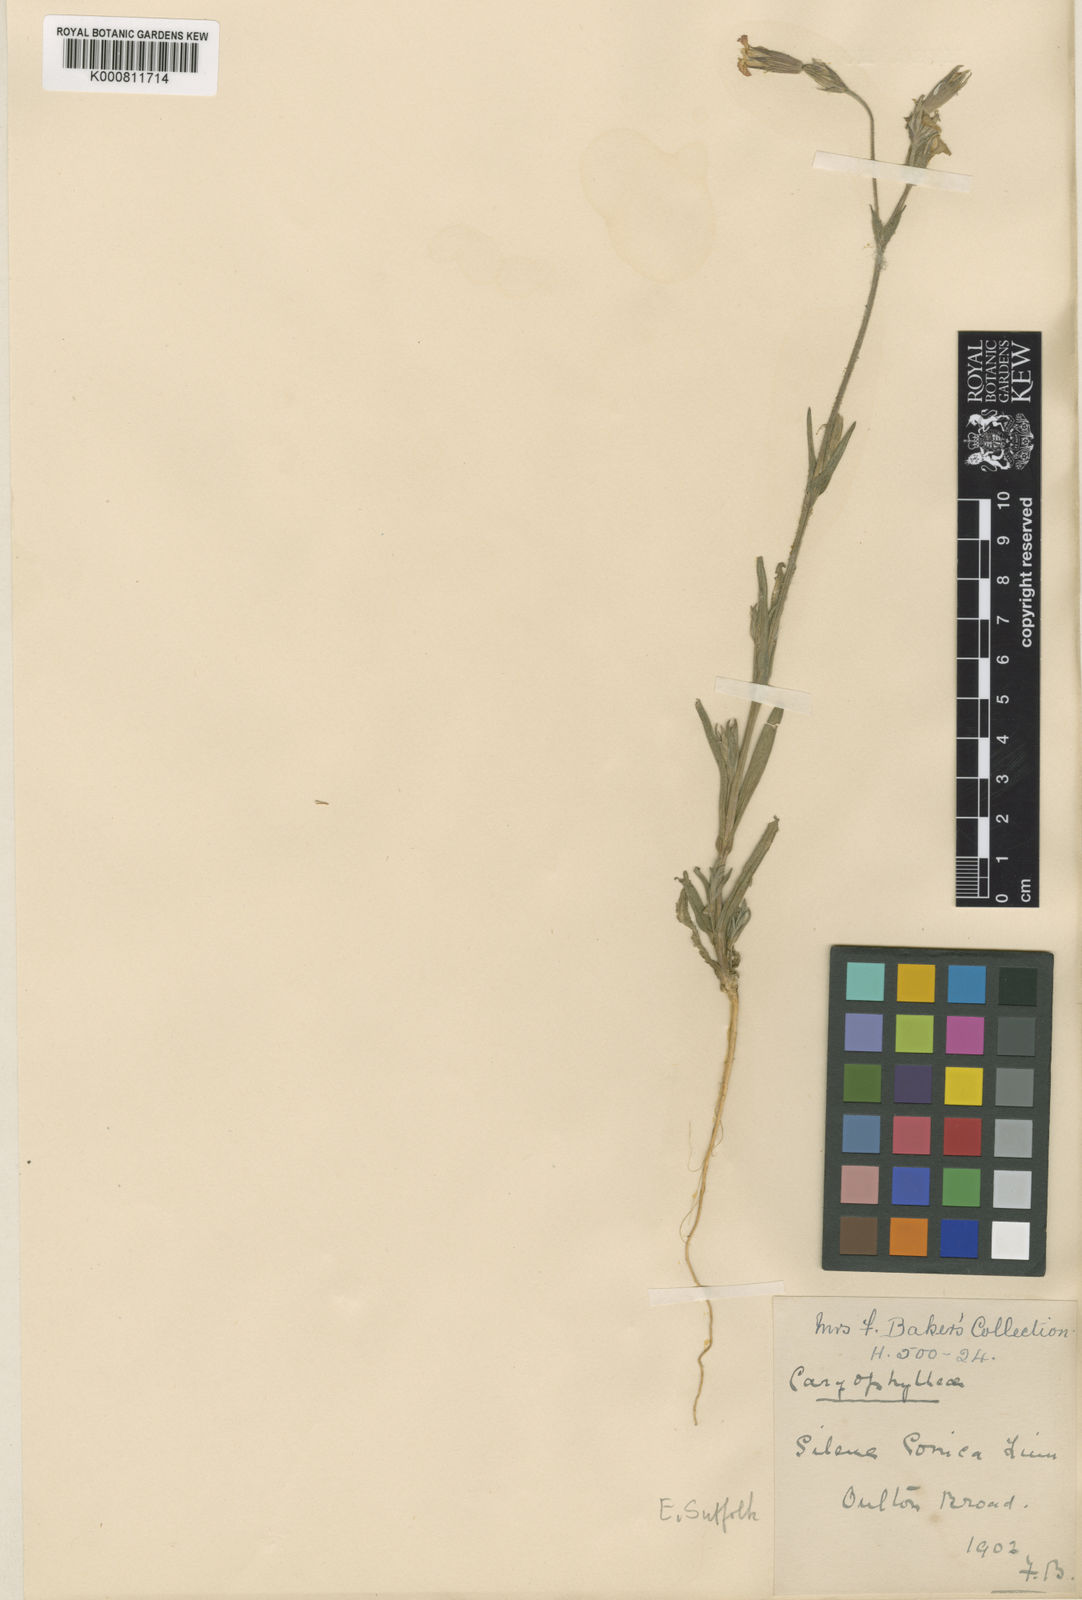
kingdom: Plantae
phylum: Tracheophyta
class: Magnoliopsida
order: Caryophyllales
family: Caryophyllaceae
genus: Silene
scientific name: Silene conica
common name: Sand catchfly
